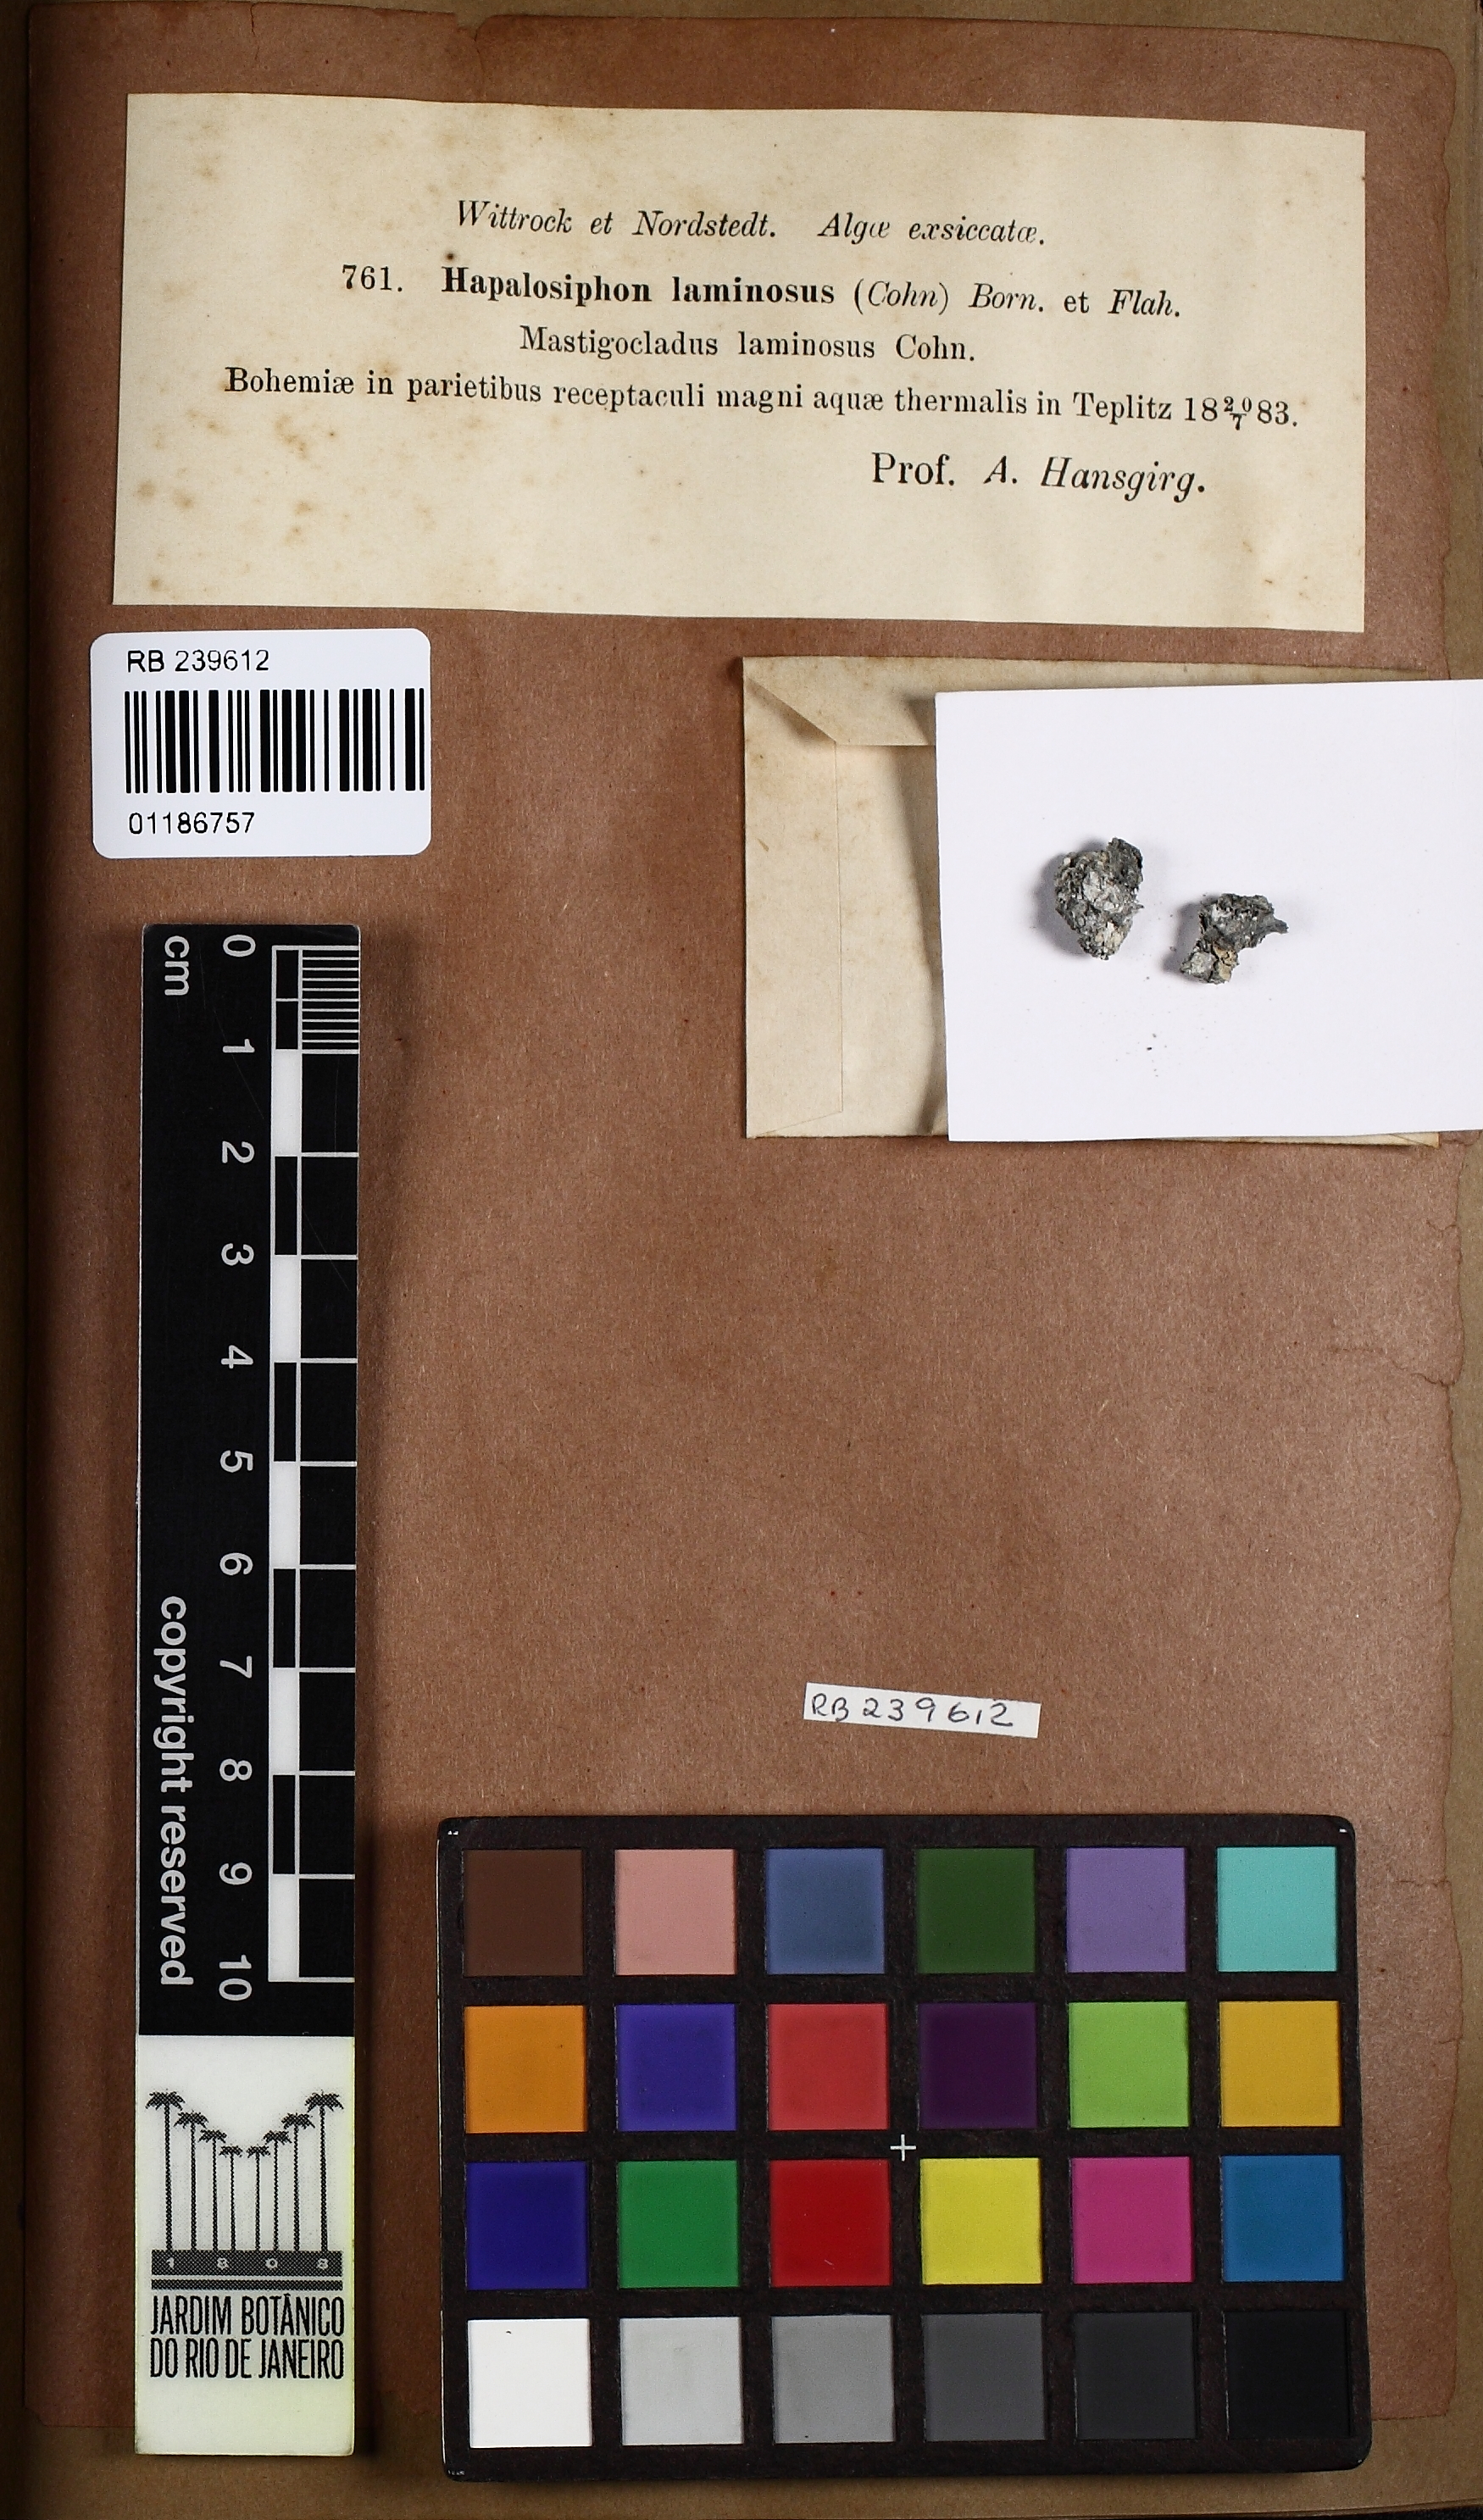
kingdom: Bacteria
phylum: Cyanobacteria
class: Cyanobacteriia
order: Cyanobacteriales
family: Hapalosiphonaceae
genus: Hapalosiphon
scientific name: Hapalosiphon laminosus
